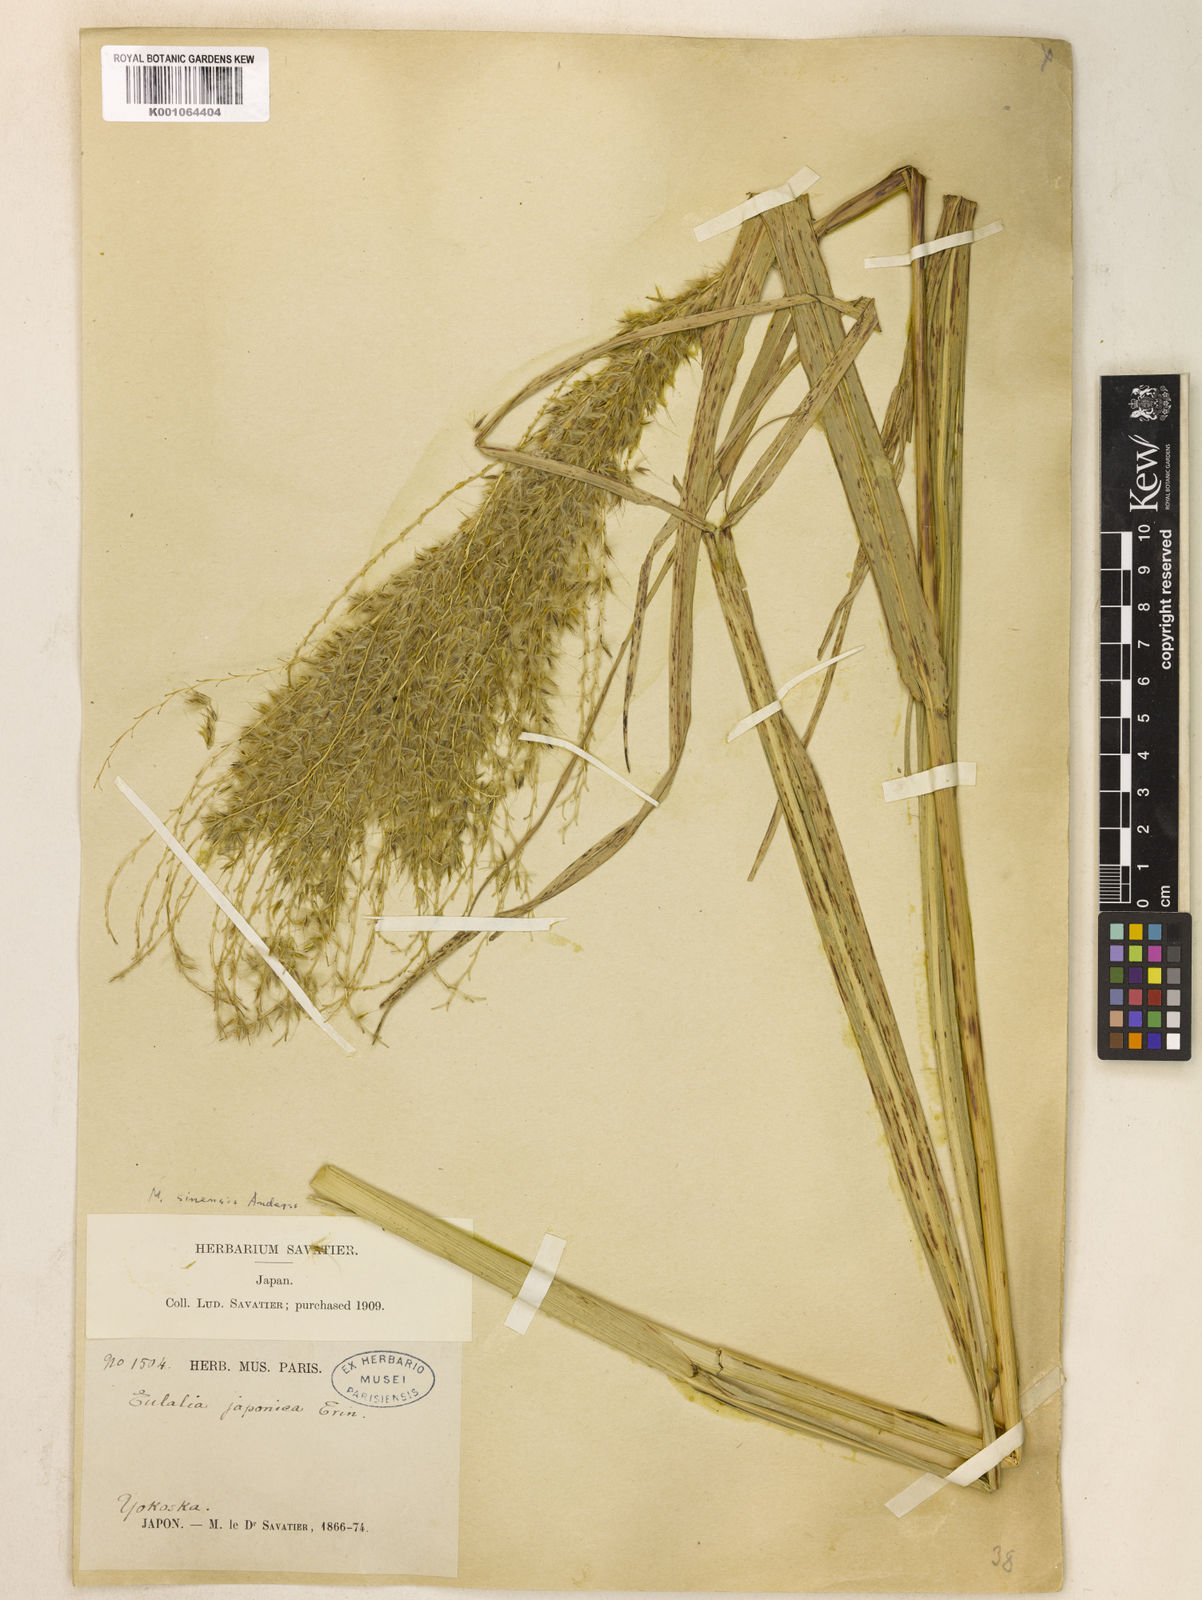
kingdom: Plantae
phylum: Tracheophyta
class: Liliopsida
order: Poales
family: Poaceae
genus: Miscanthus
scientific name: Miscanthus sinensis
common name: Chinese silvergrass
